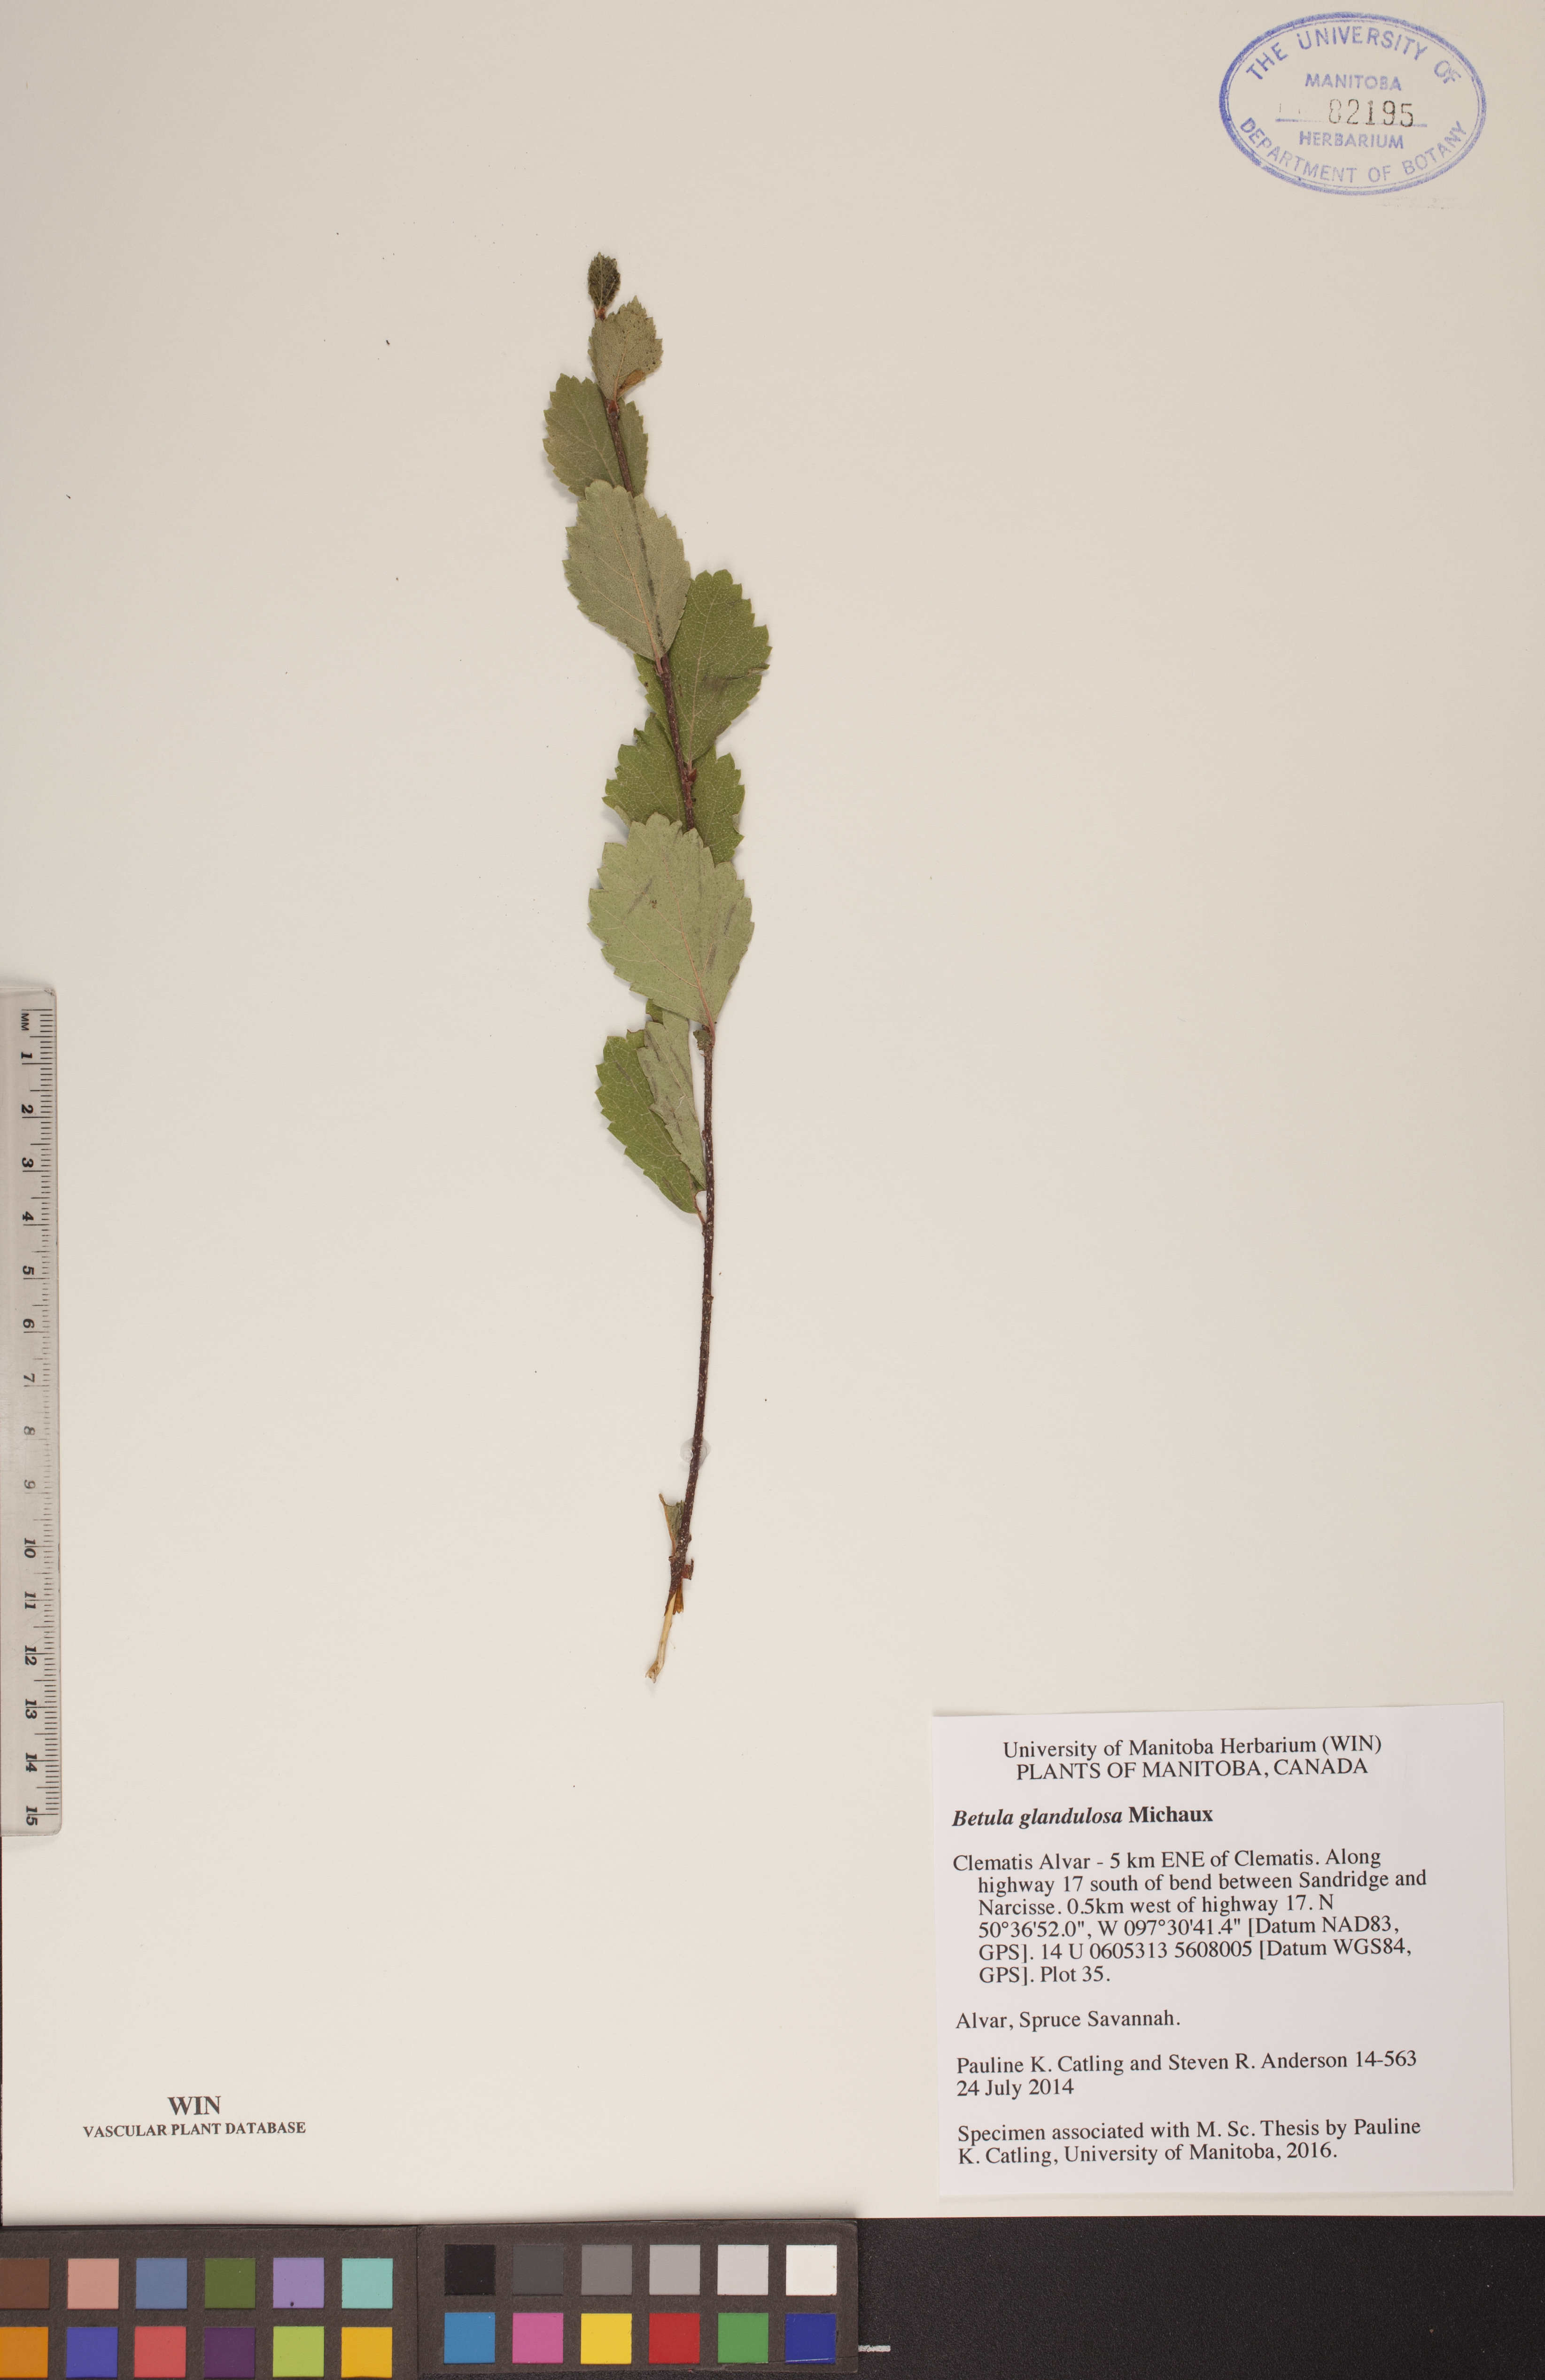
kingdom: Plantae
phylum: Tracheophyta
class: Magnoliopsida
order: Fagales
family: Betulaceae
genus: Betula
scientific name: Betula glandulosa
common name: Dwarf birch
